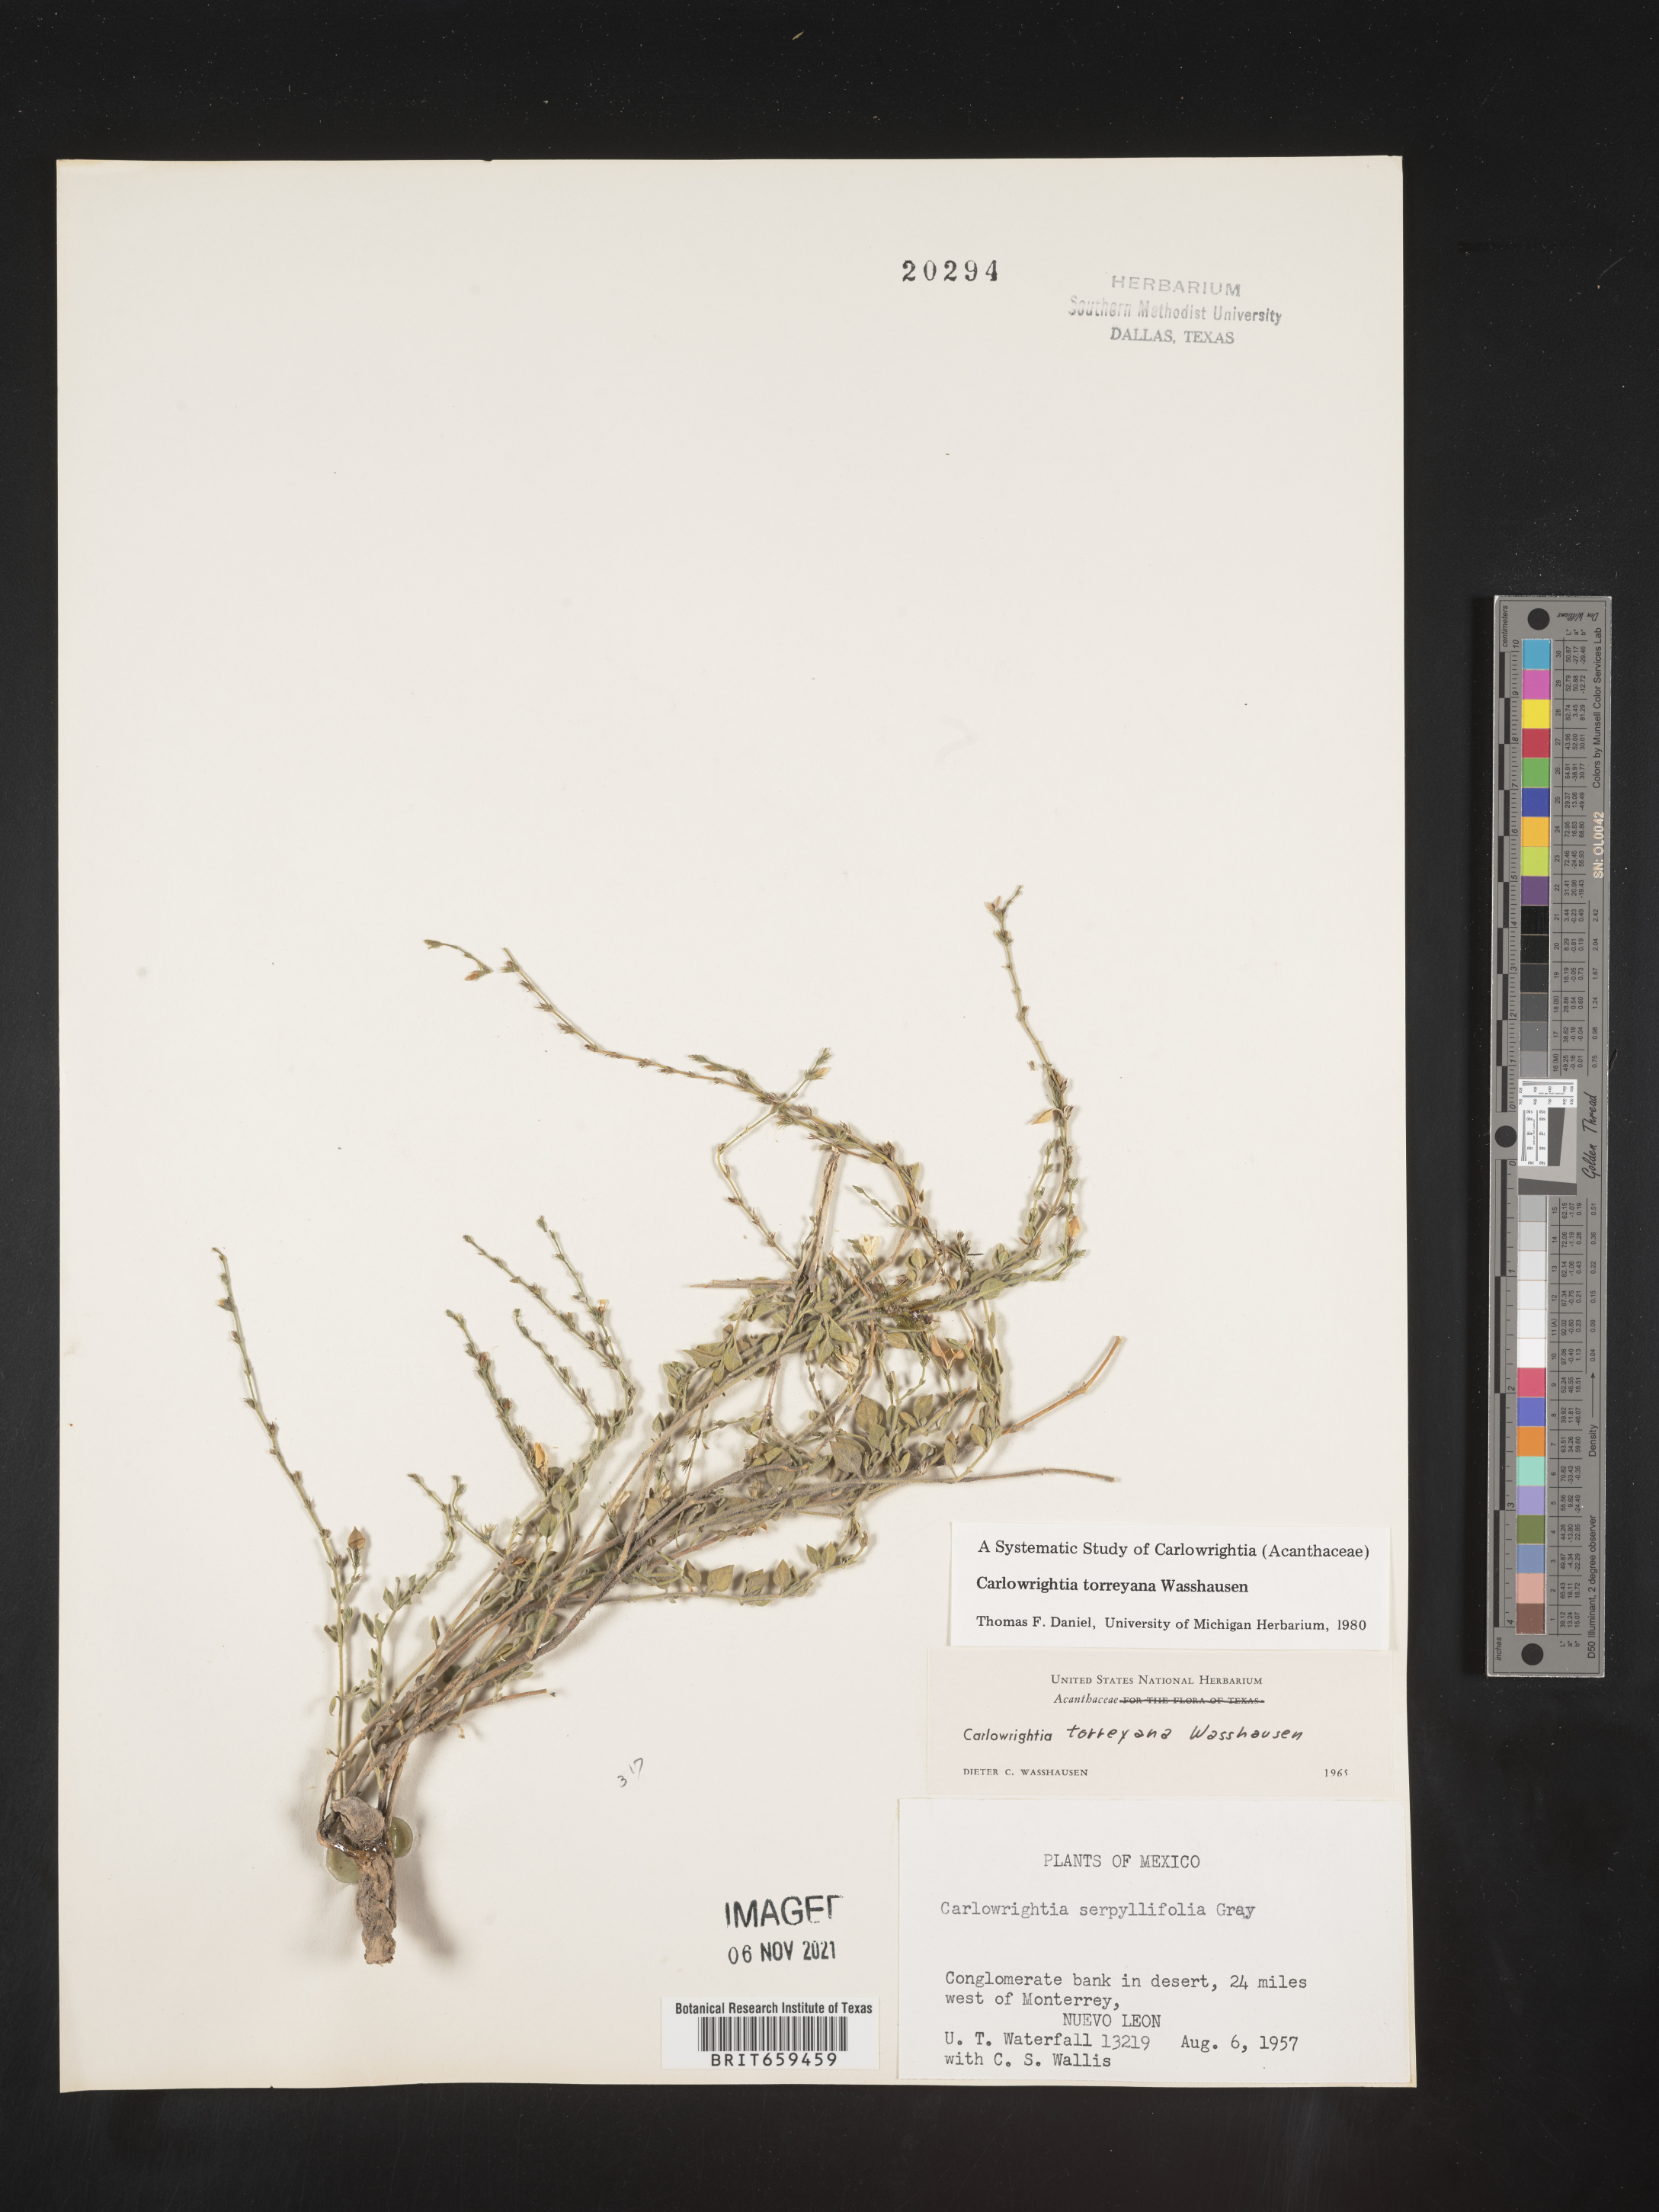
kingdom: Plantae
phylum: Tracheophyta
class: Magnoliopsida
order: Lamiales
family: Acanthaceae
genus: Carlowrightia
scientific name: Carlowrightia
